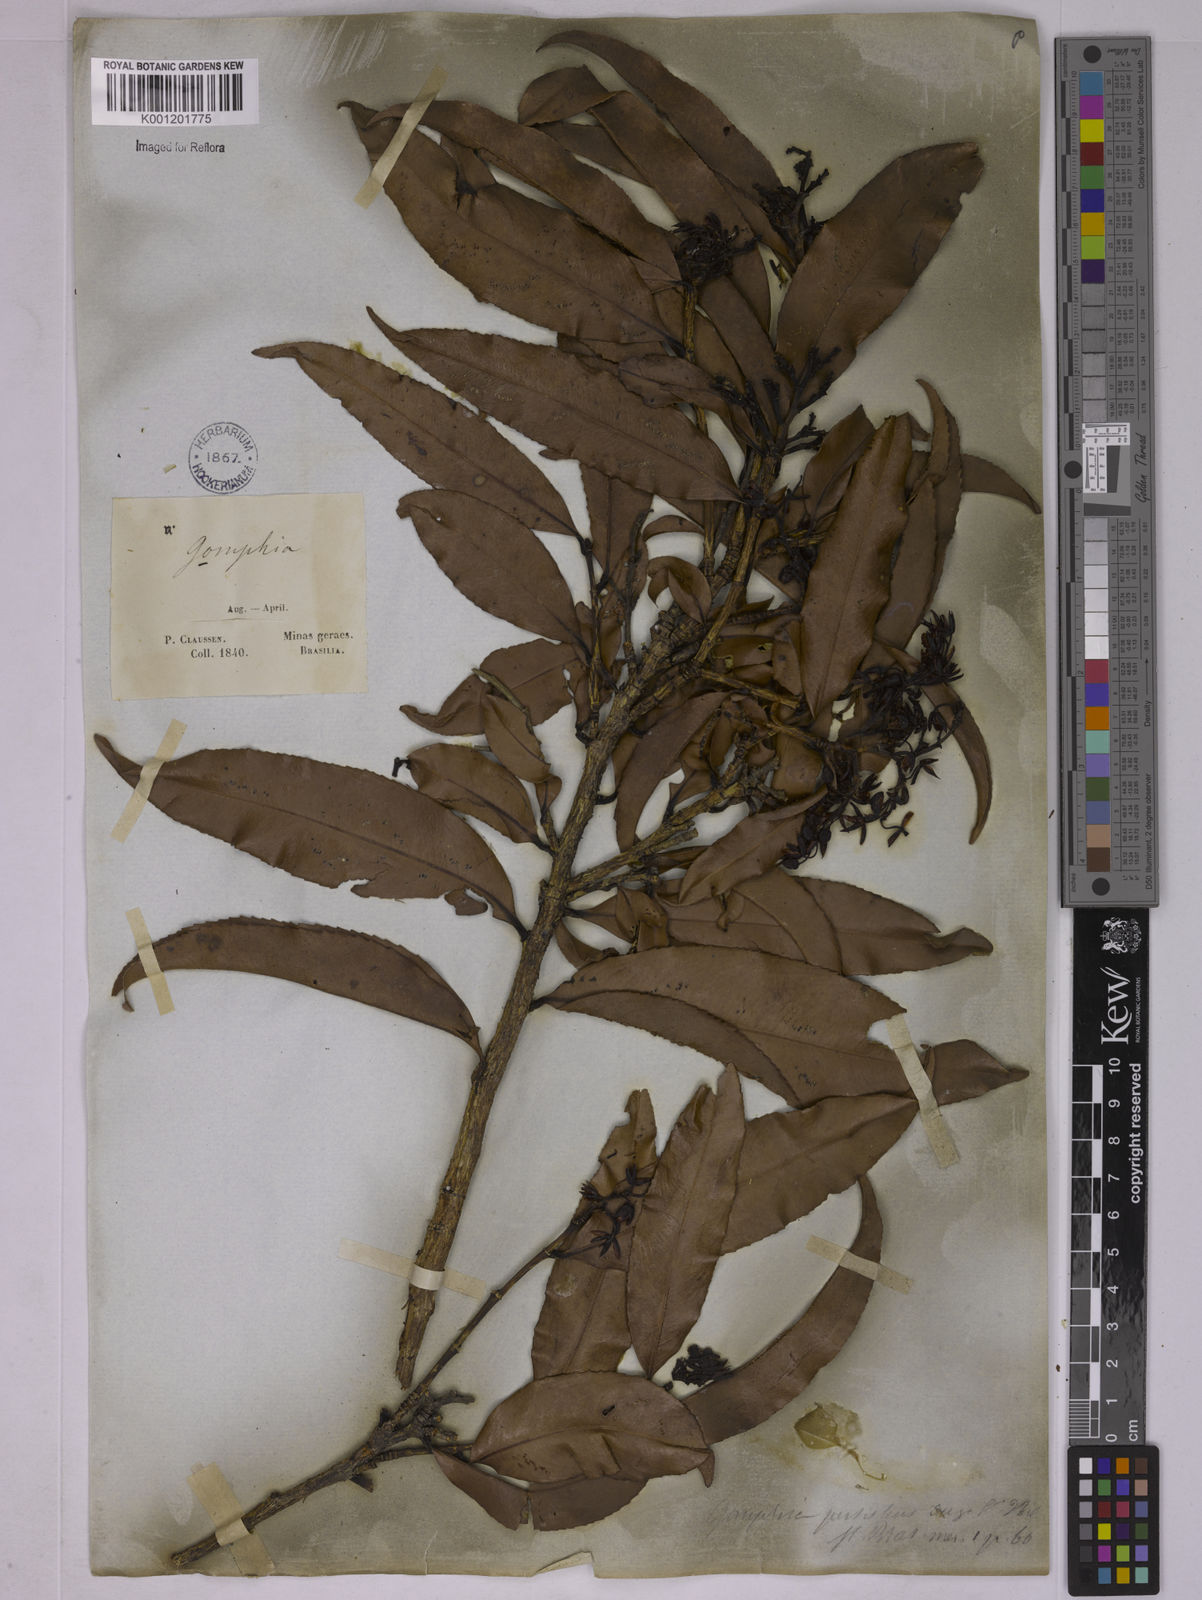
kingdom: Plantae
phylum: Tracheophyta
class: Magnoliopsida
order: Malpighiales
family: Ochnaceae
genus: Ouratea
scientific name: Ouratea semiserrata
